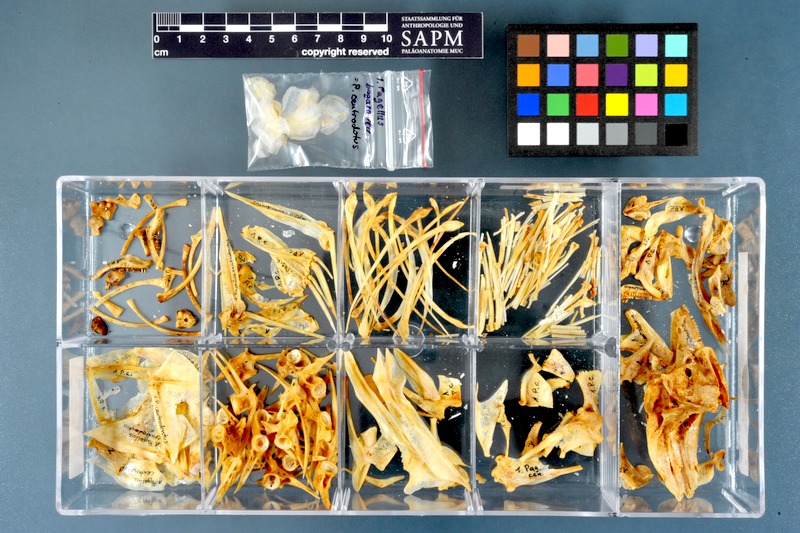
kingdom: Animalia
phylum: Chordata
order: Perciformes
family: Sparidae
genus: Pagellus
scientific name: Pagellus bogaraveo
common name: Red sea-bream
